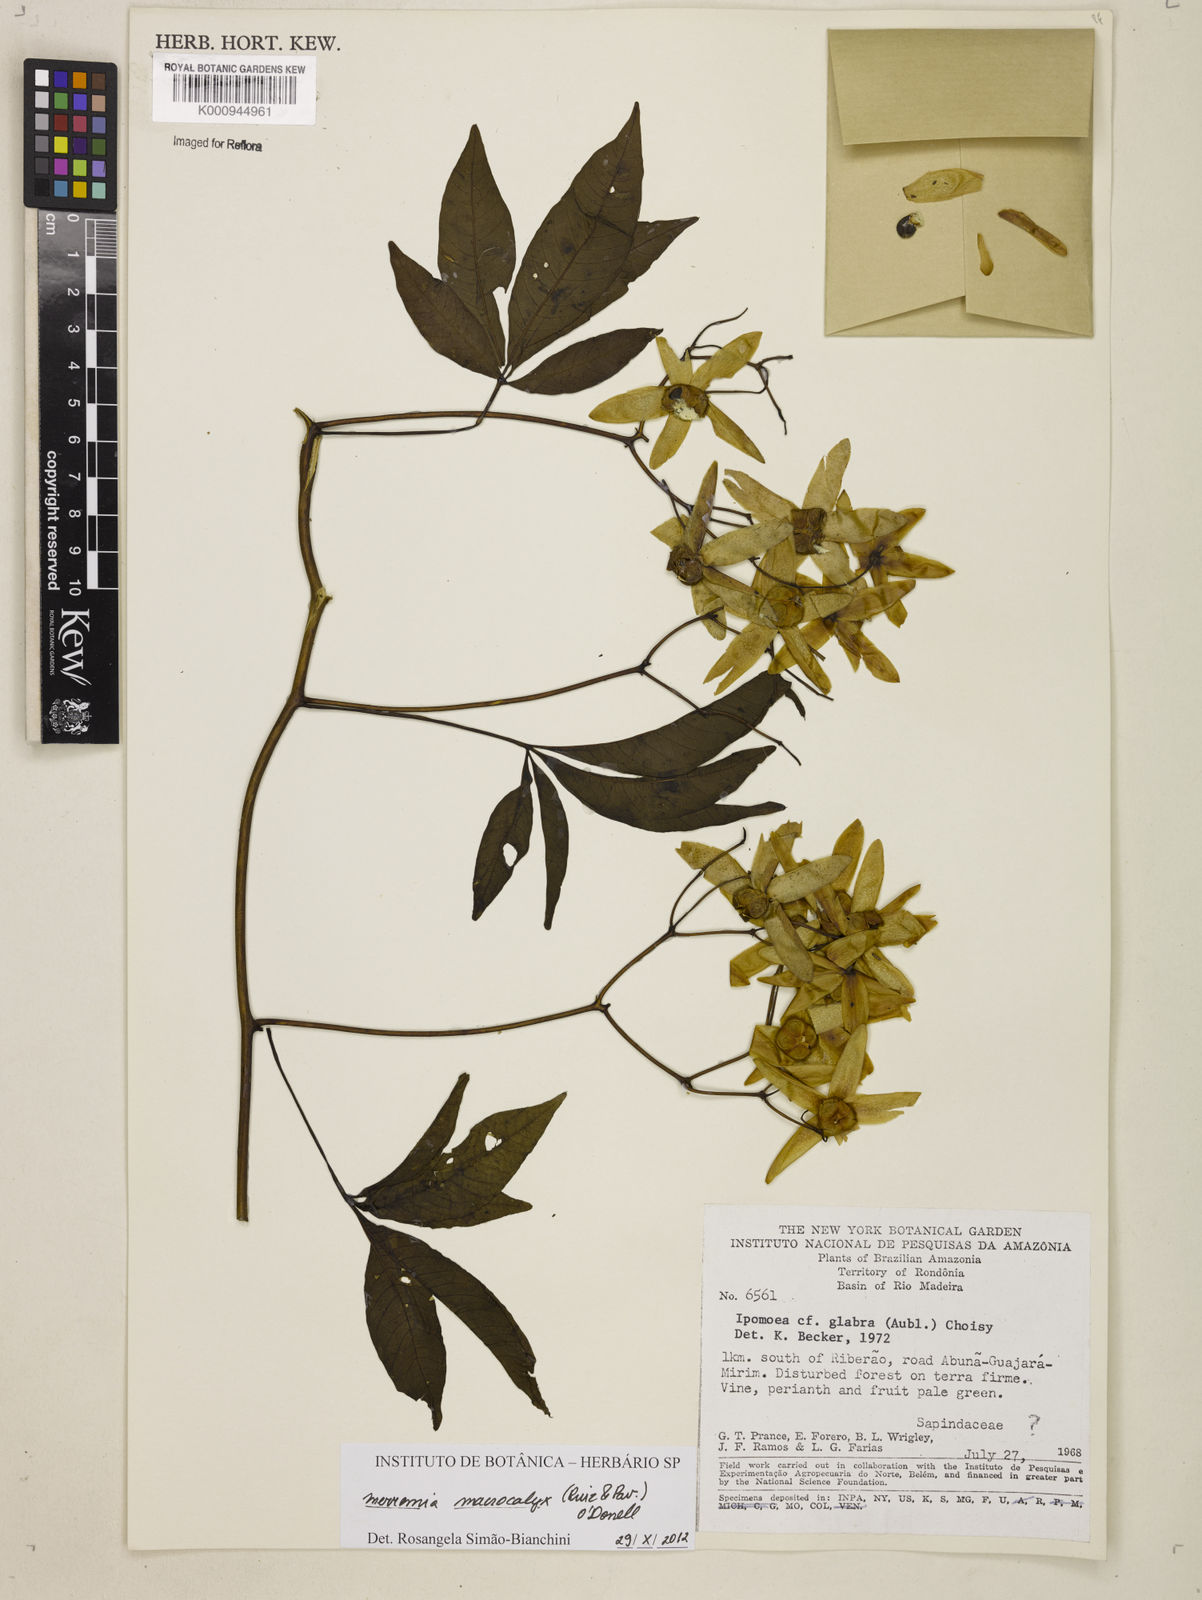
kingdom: Plantae
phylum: Tracheophyta
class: Magnoliopsida
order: Solanales
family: Convolvulaceae
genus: Merremia
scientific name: Merremia
